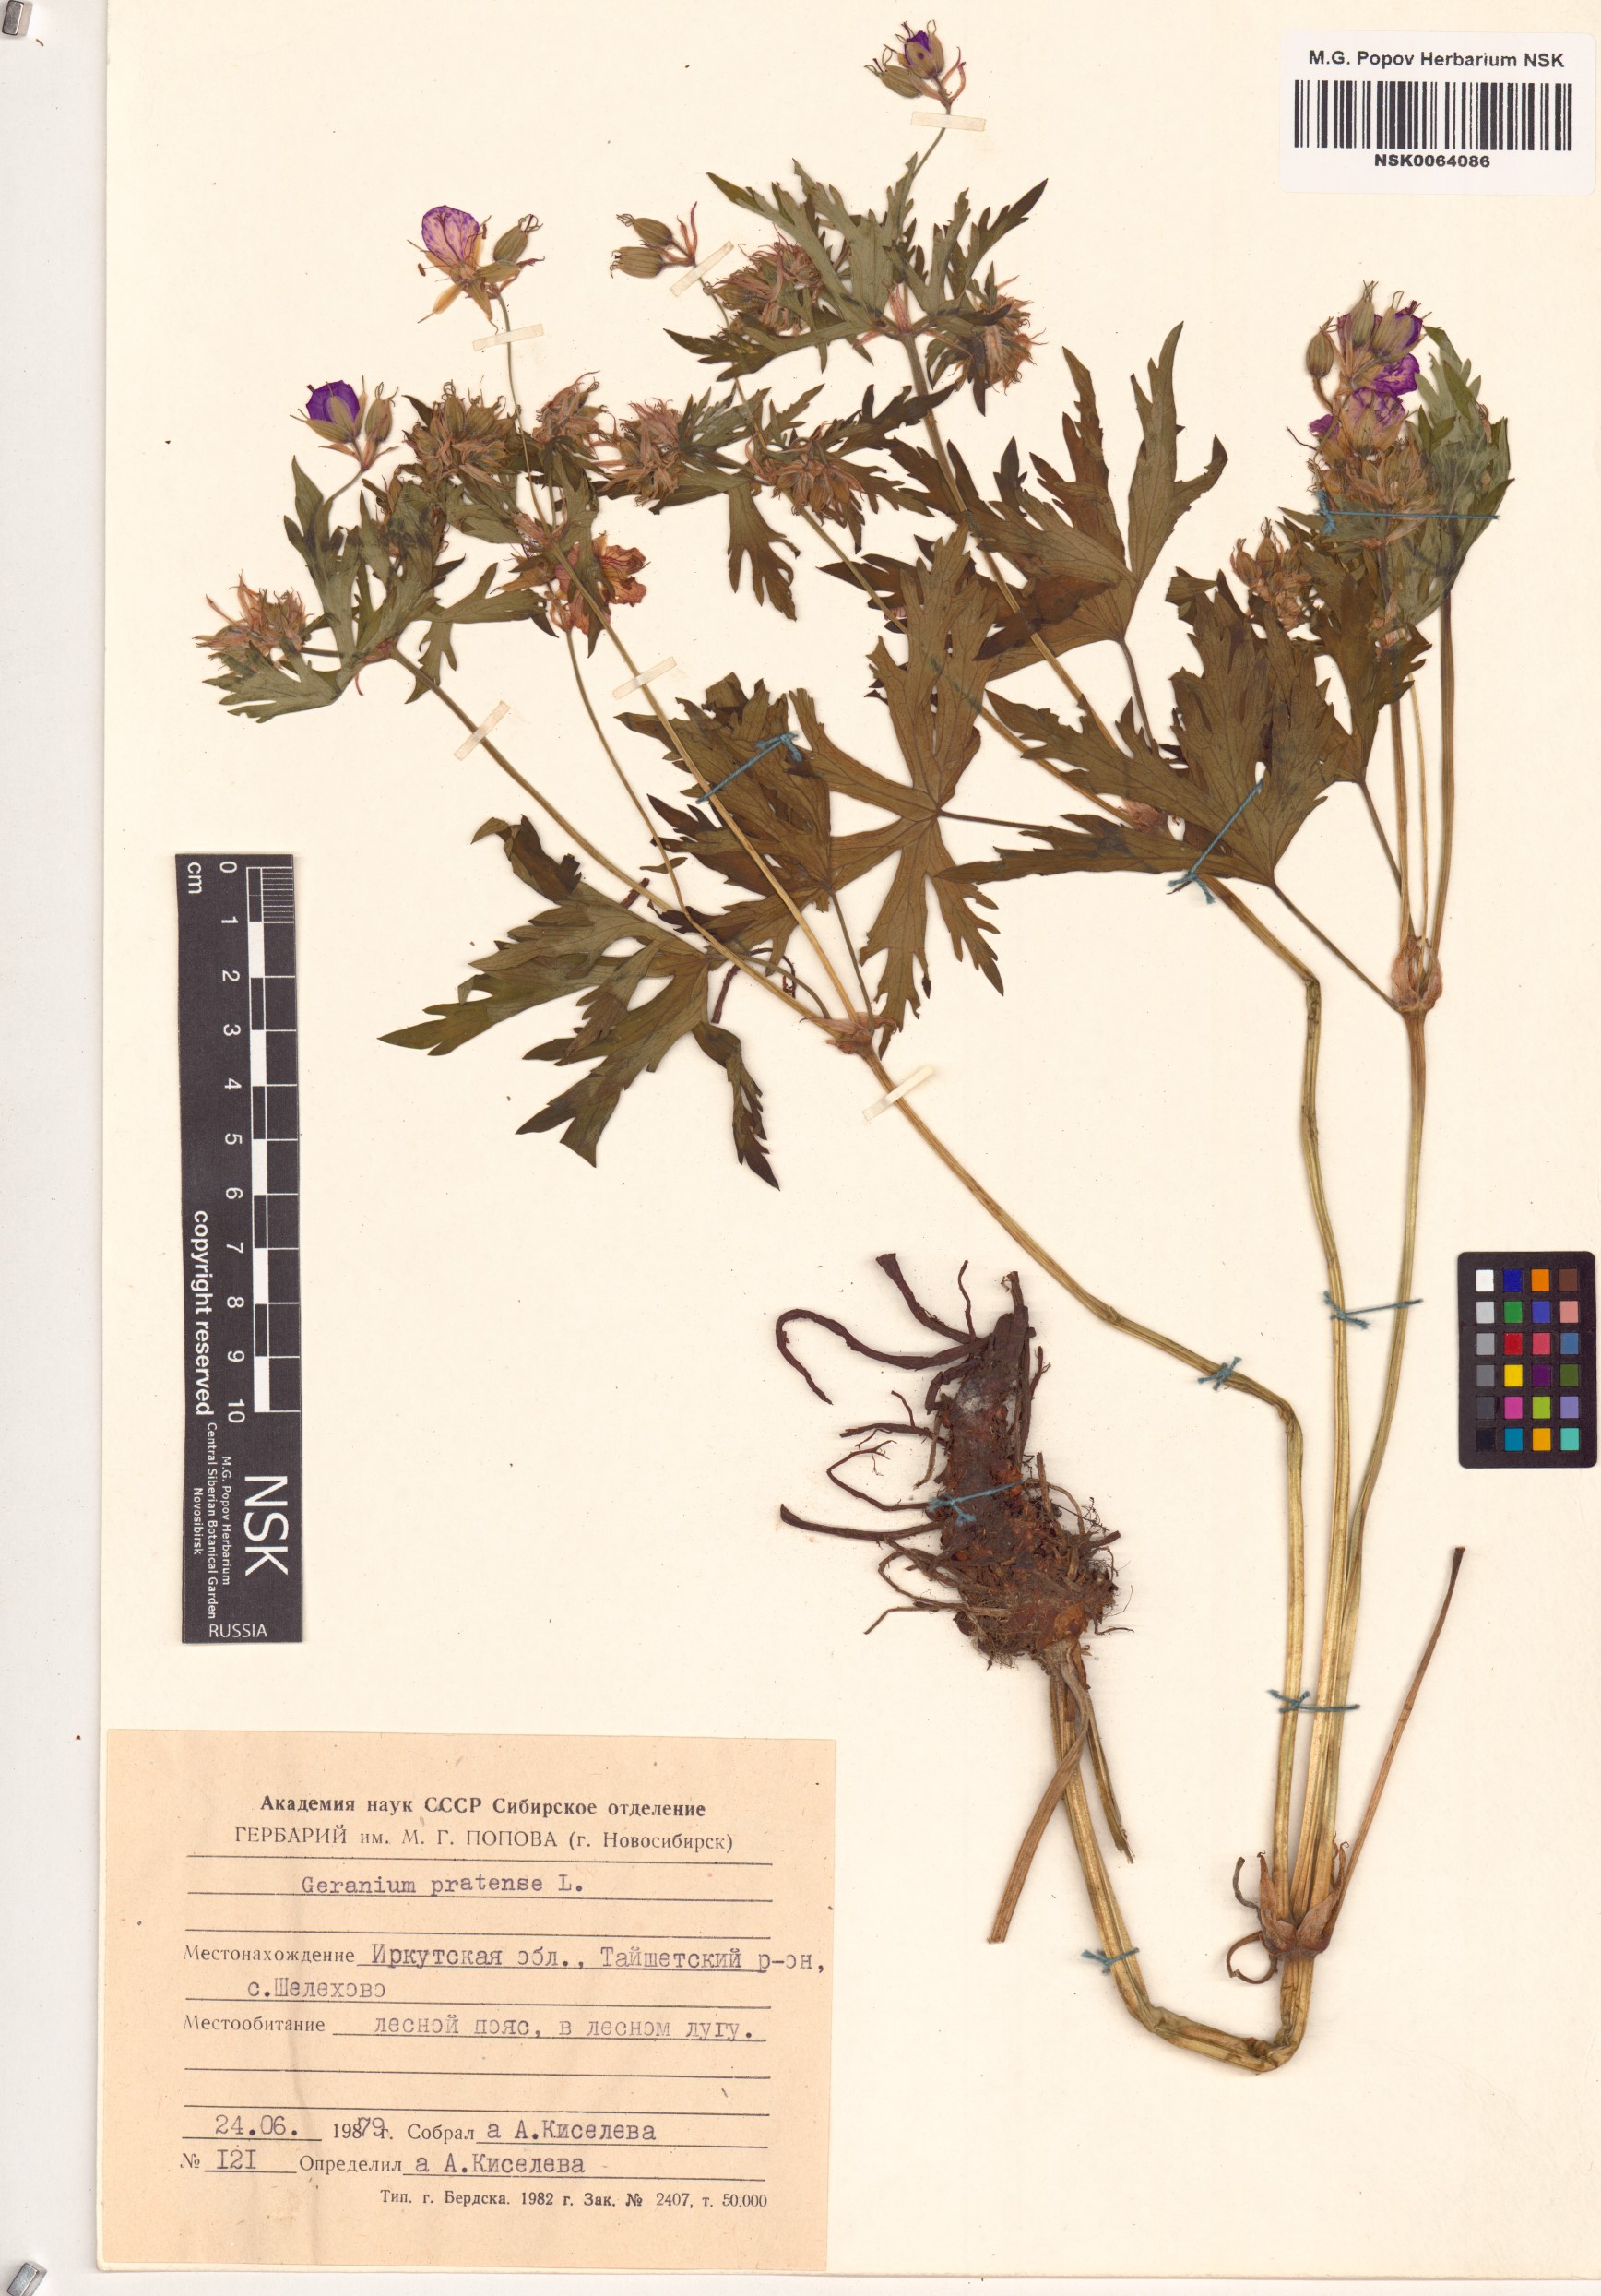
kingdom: Plantae
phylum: Tracheophyta
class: Magnoliopsida
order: Geraniales
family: Geraniaceae
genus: Geranium
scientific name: Geranium pratense
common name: Meadow crane's-bill
